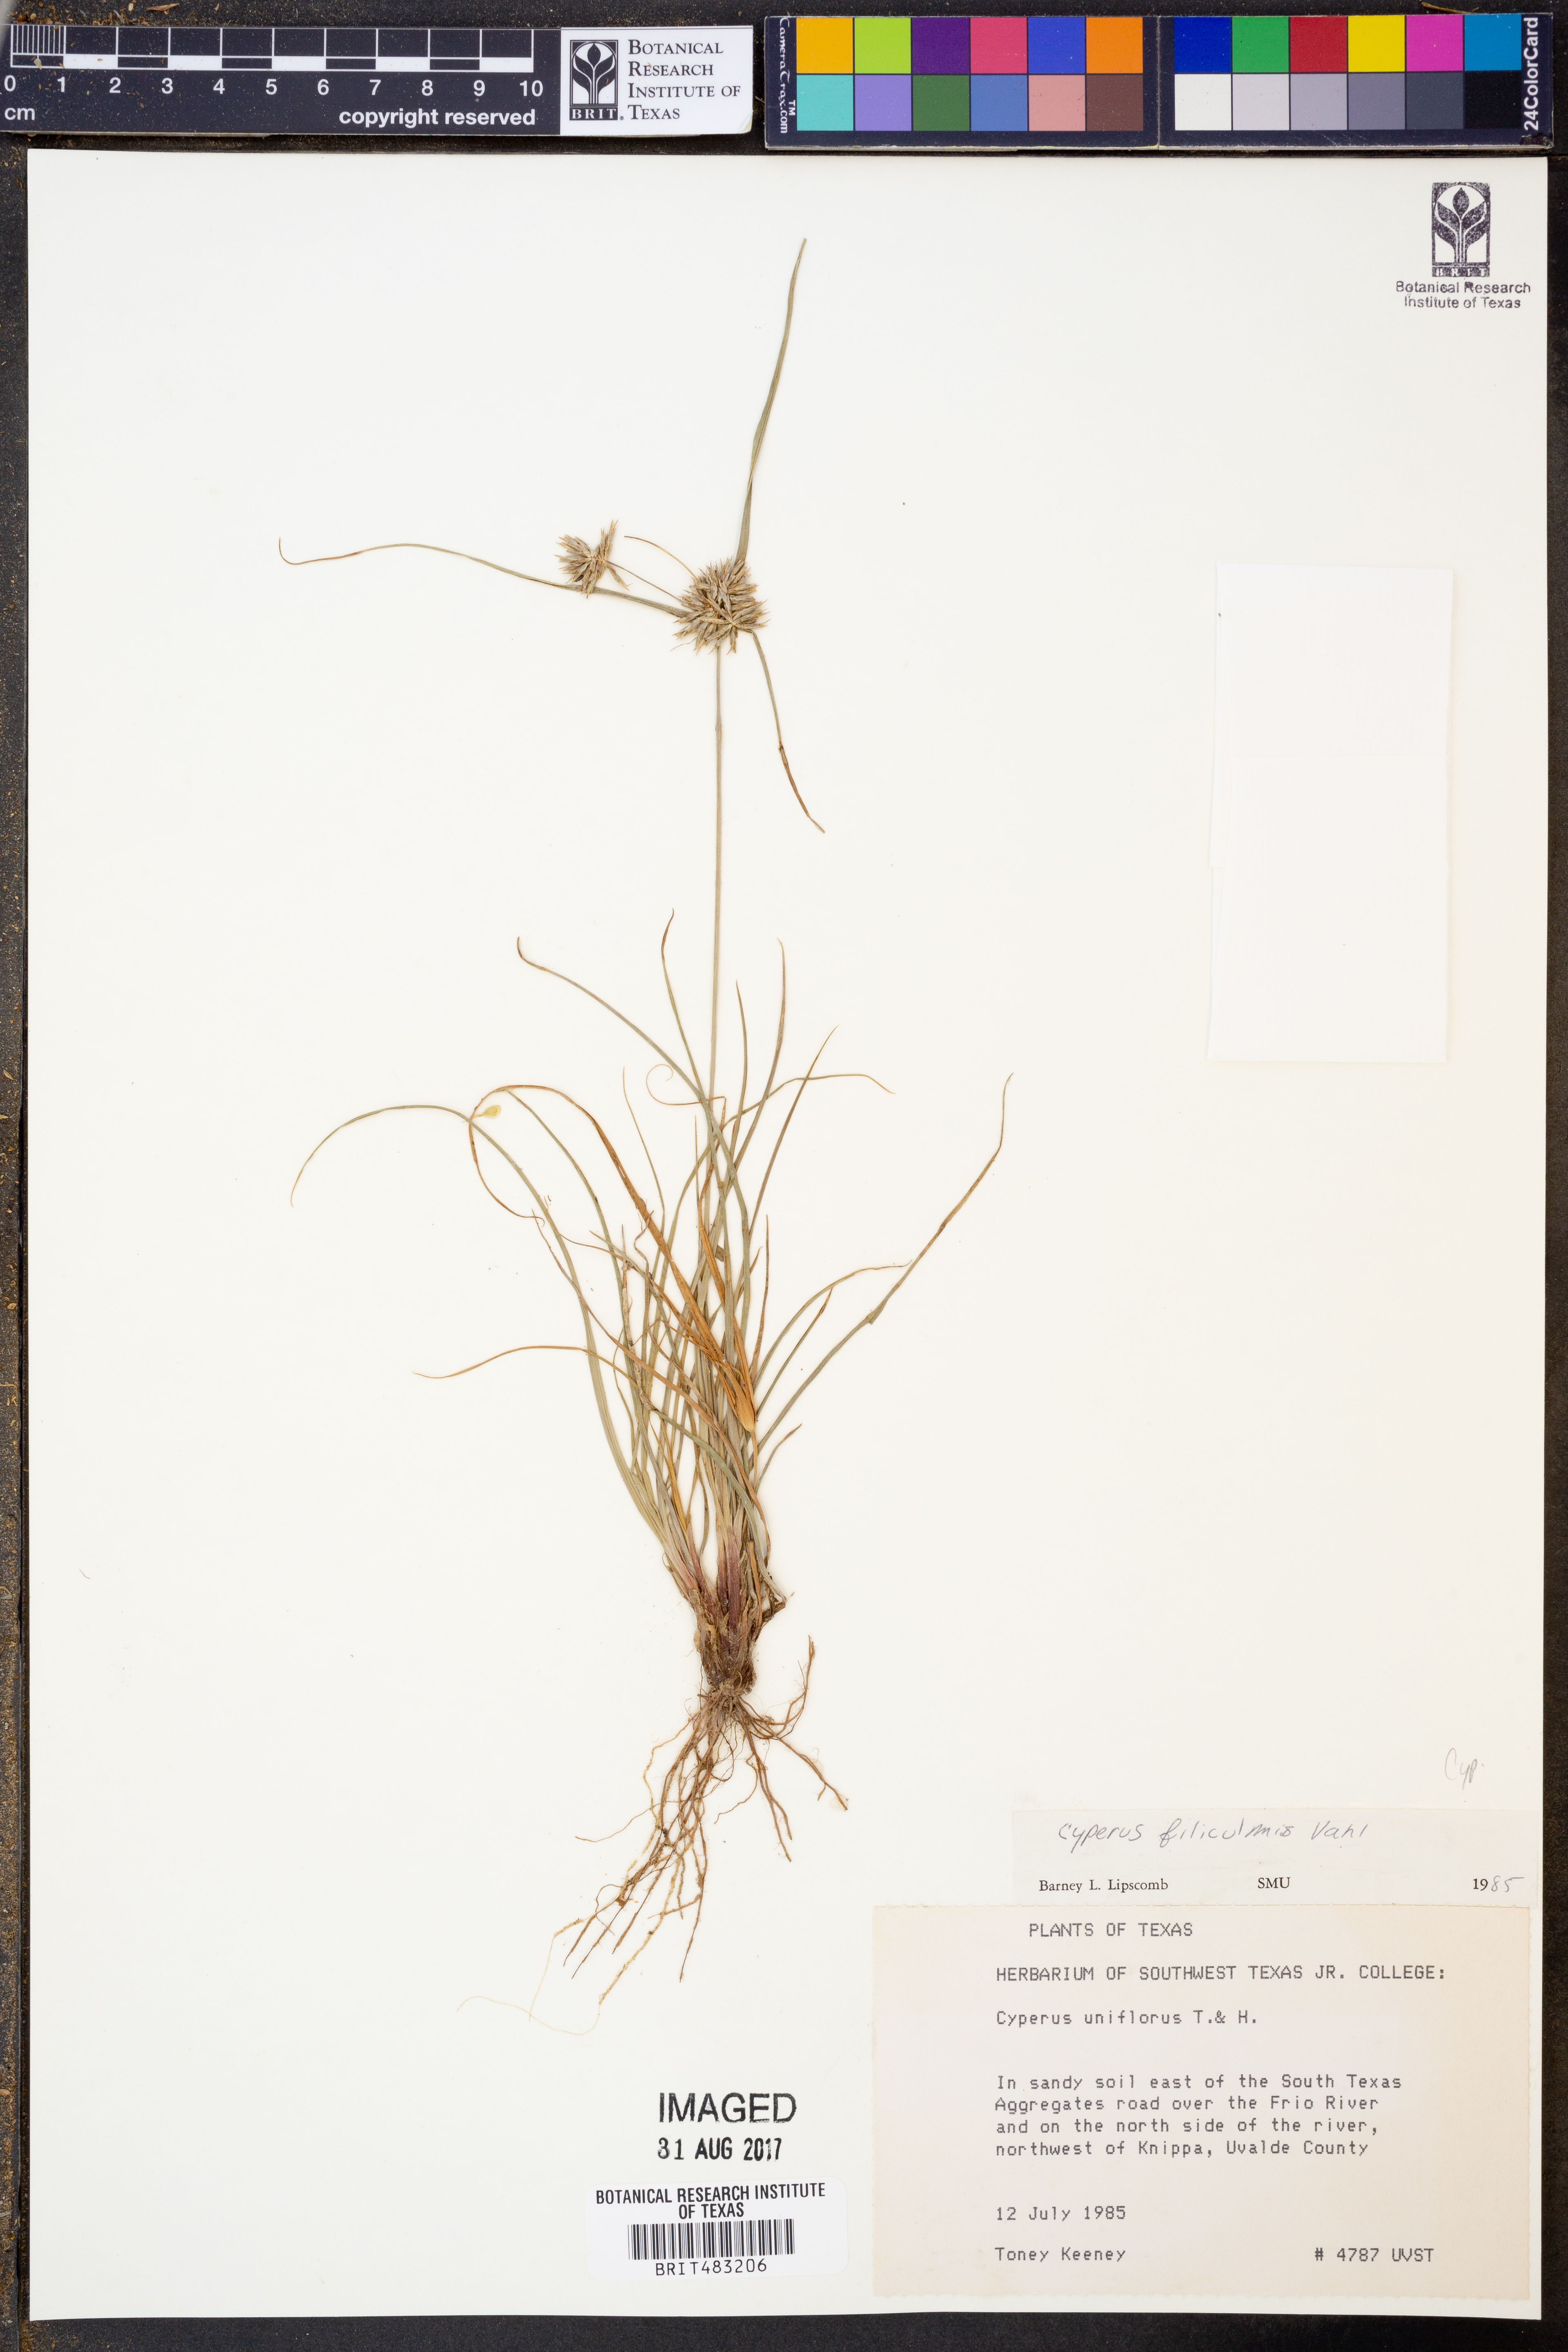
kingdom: Plantae
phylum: Tracheophyta
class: Liliopsida
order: Poales
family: Cyperaceae
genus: Cyperus
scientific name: Cyperus lanceolatus
